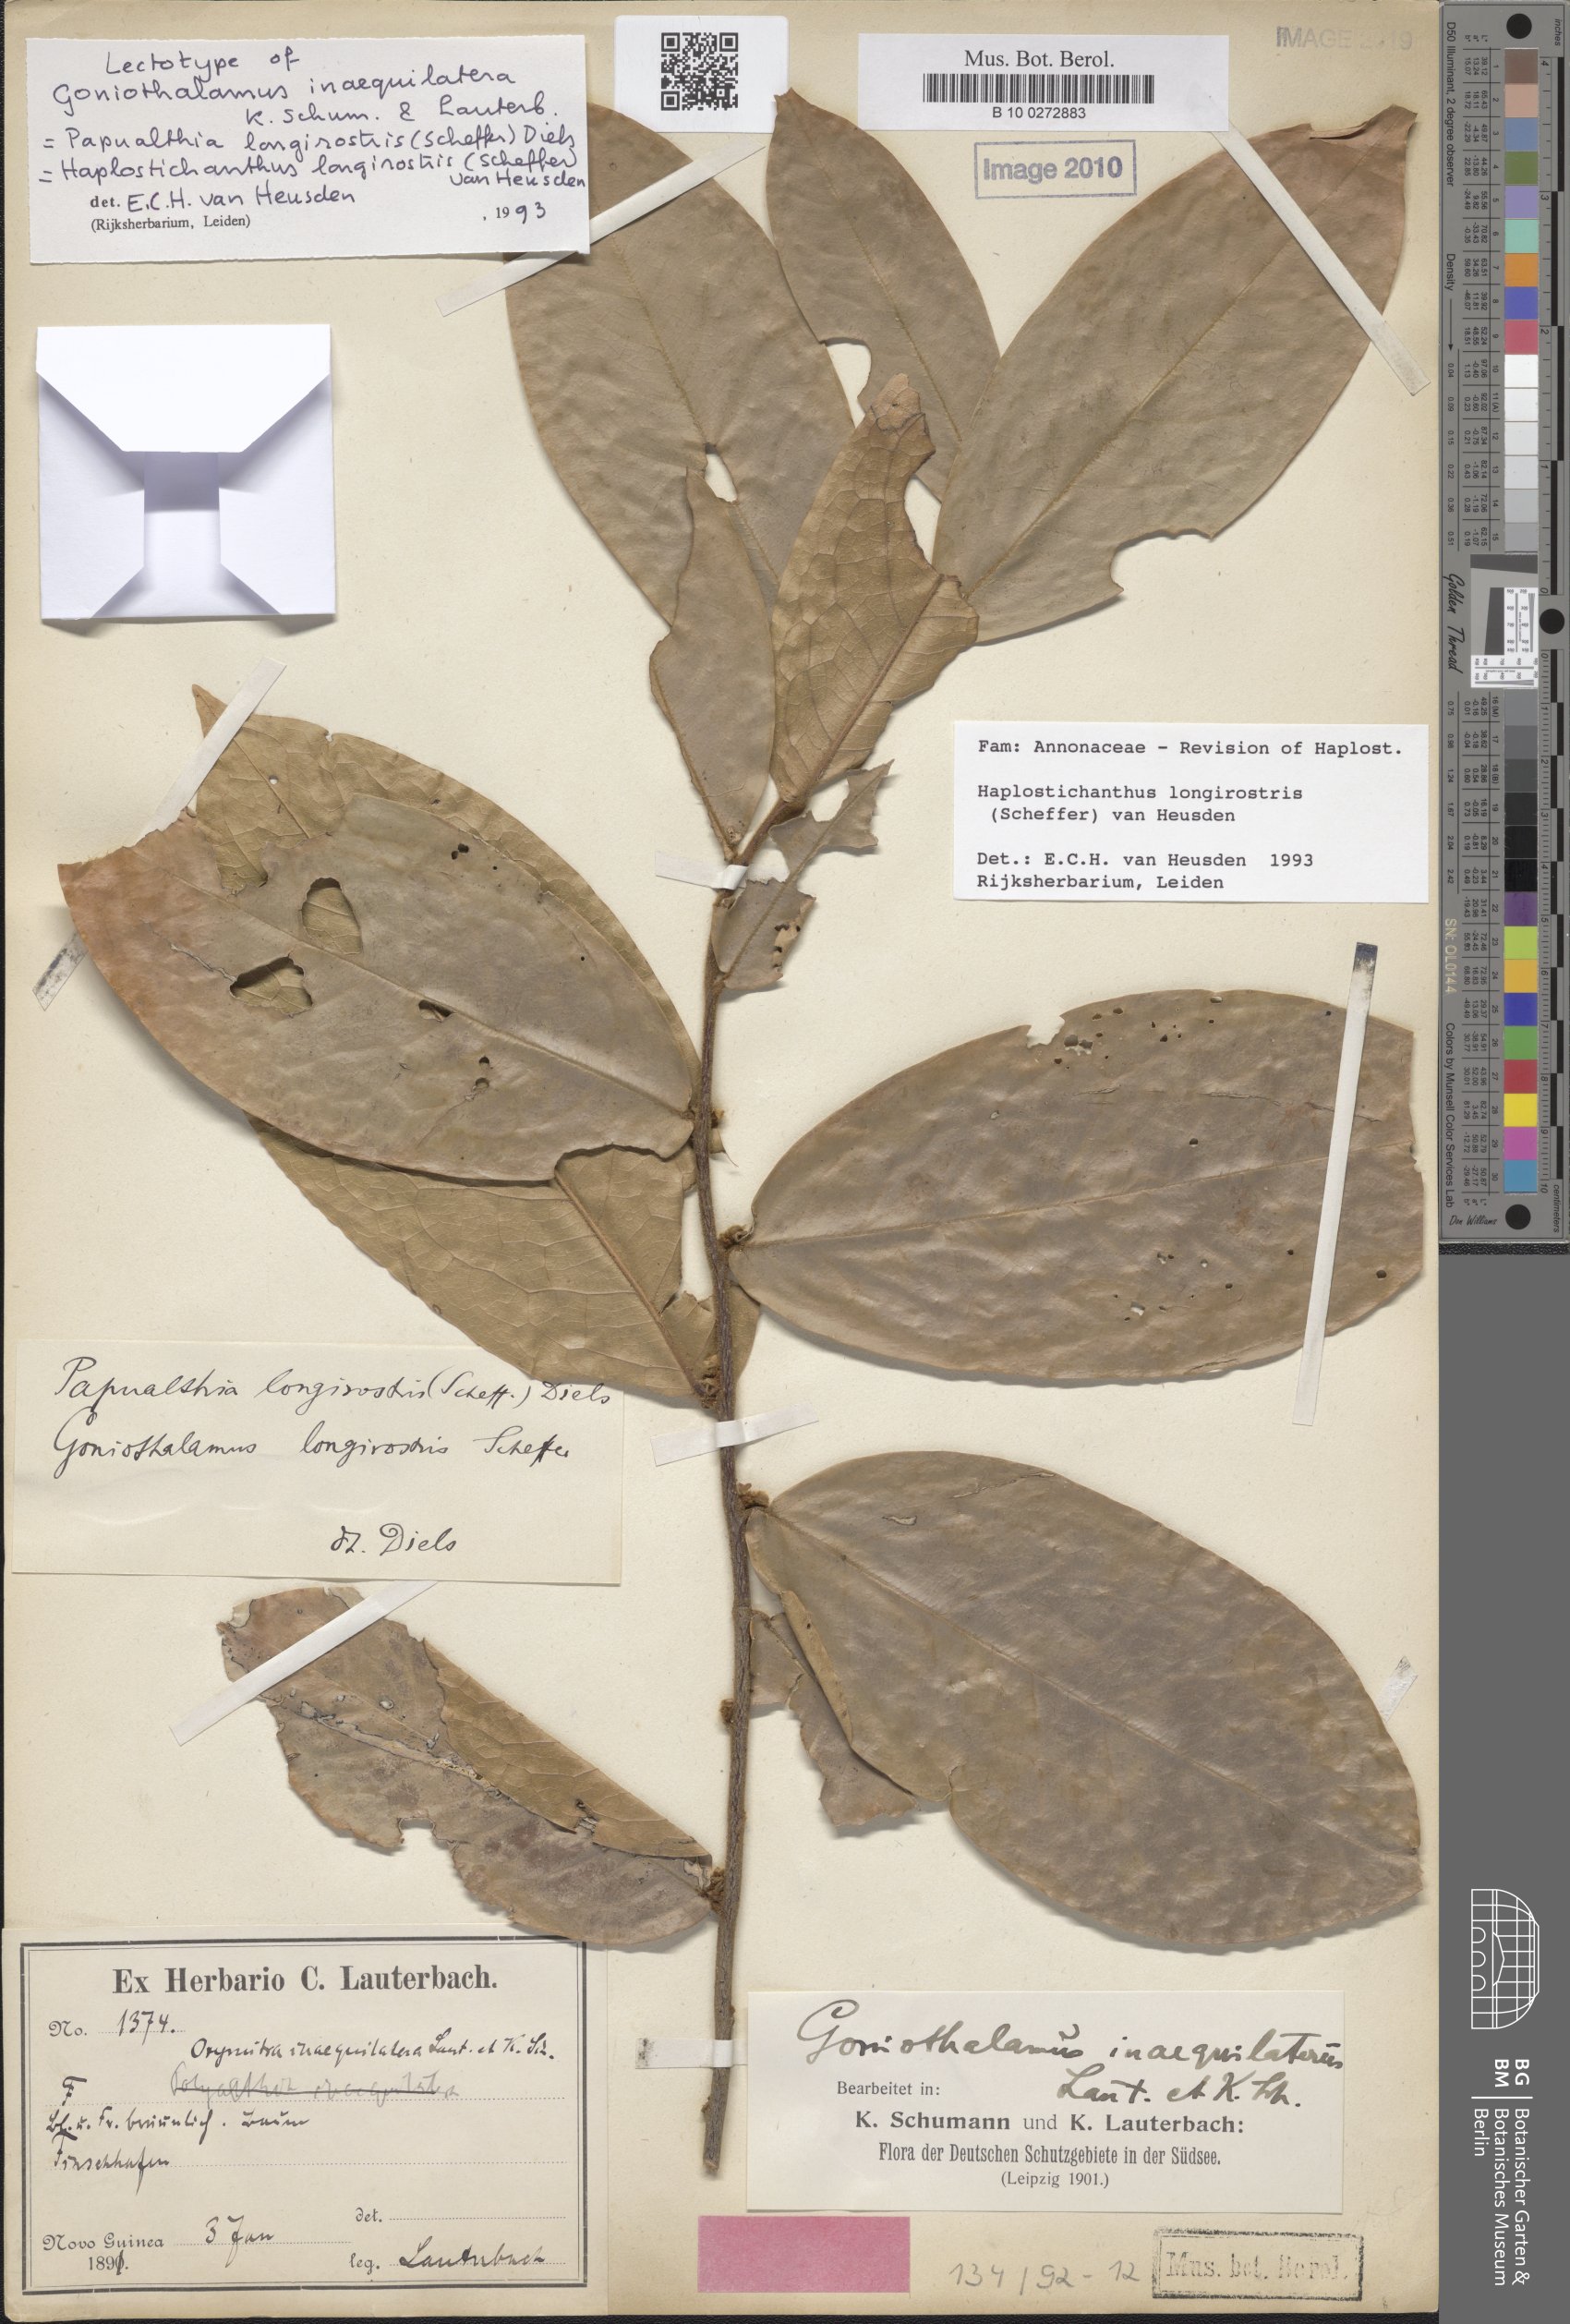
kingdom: Plantae
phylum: Tracheophyta
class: Magnoliopsida
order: Magnoliales
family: Annonaceae
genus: Haplostichanthus
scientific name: Haplostichanthus longirostris
